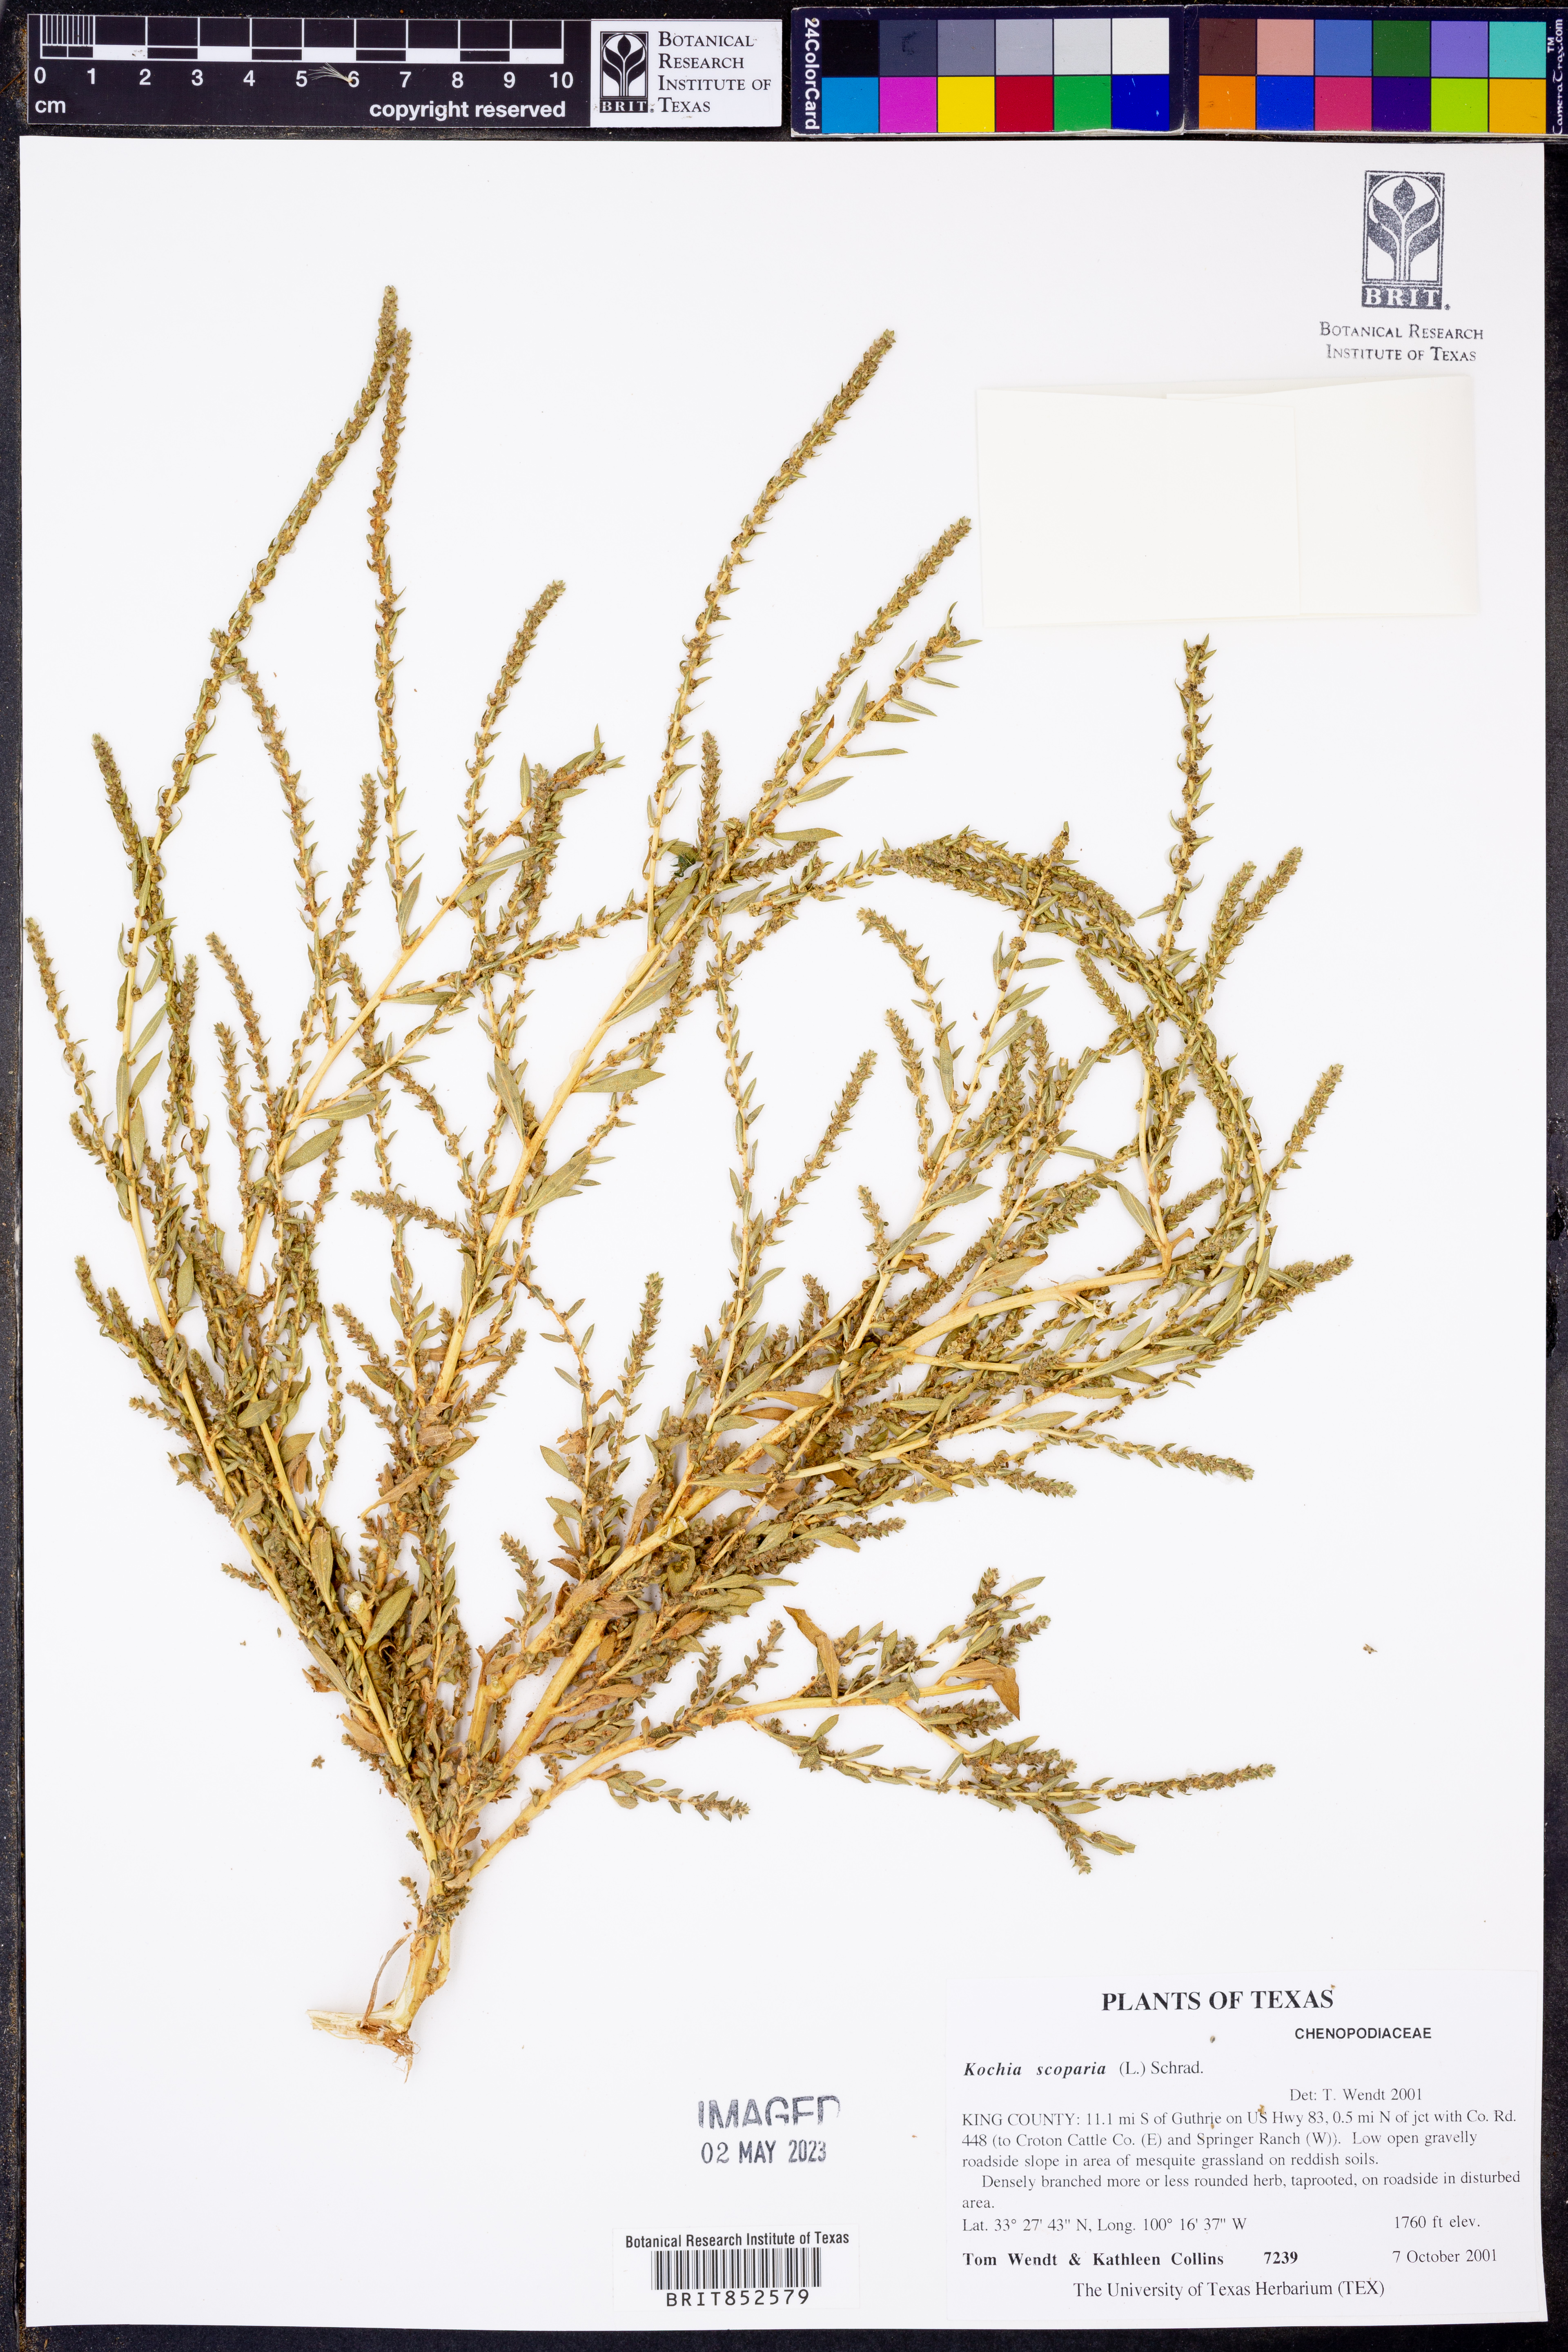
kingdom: Plantae
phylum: Tracheophyta
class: Magnoliopsida
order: Caryophyllales
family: Amaranthaceae
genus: Bassia
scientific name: Bassia scoparia
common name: Belvedere
